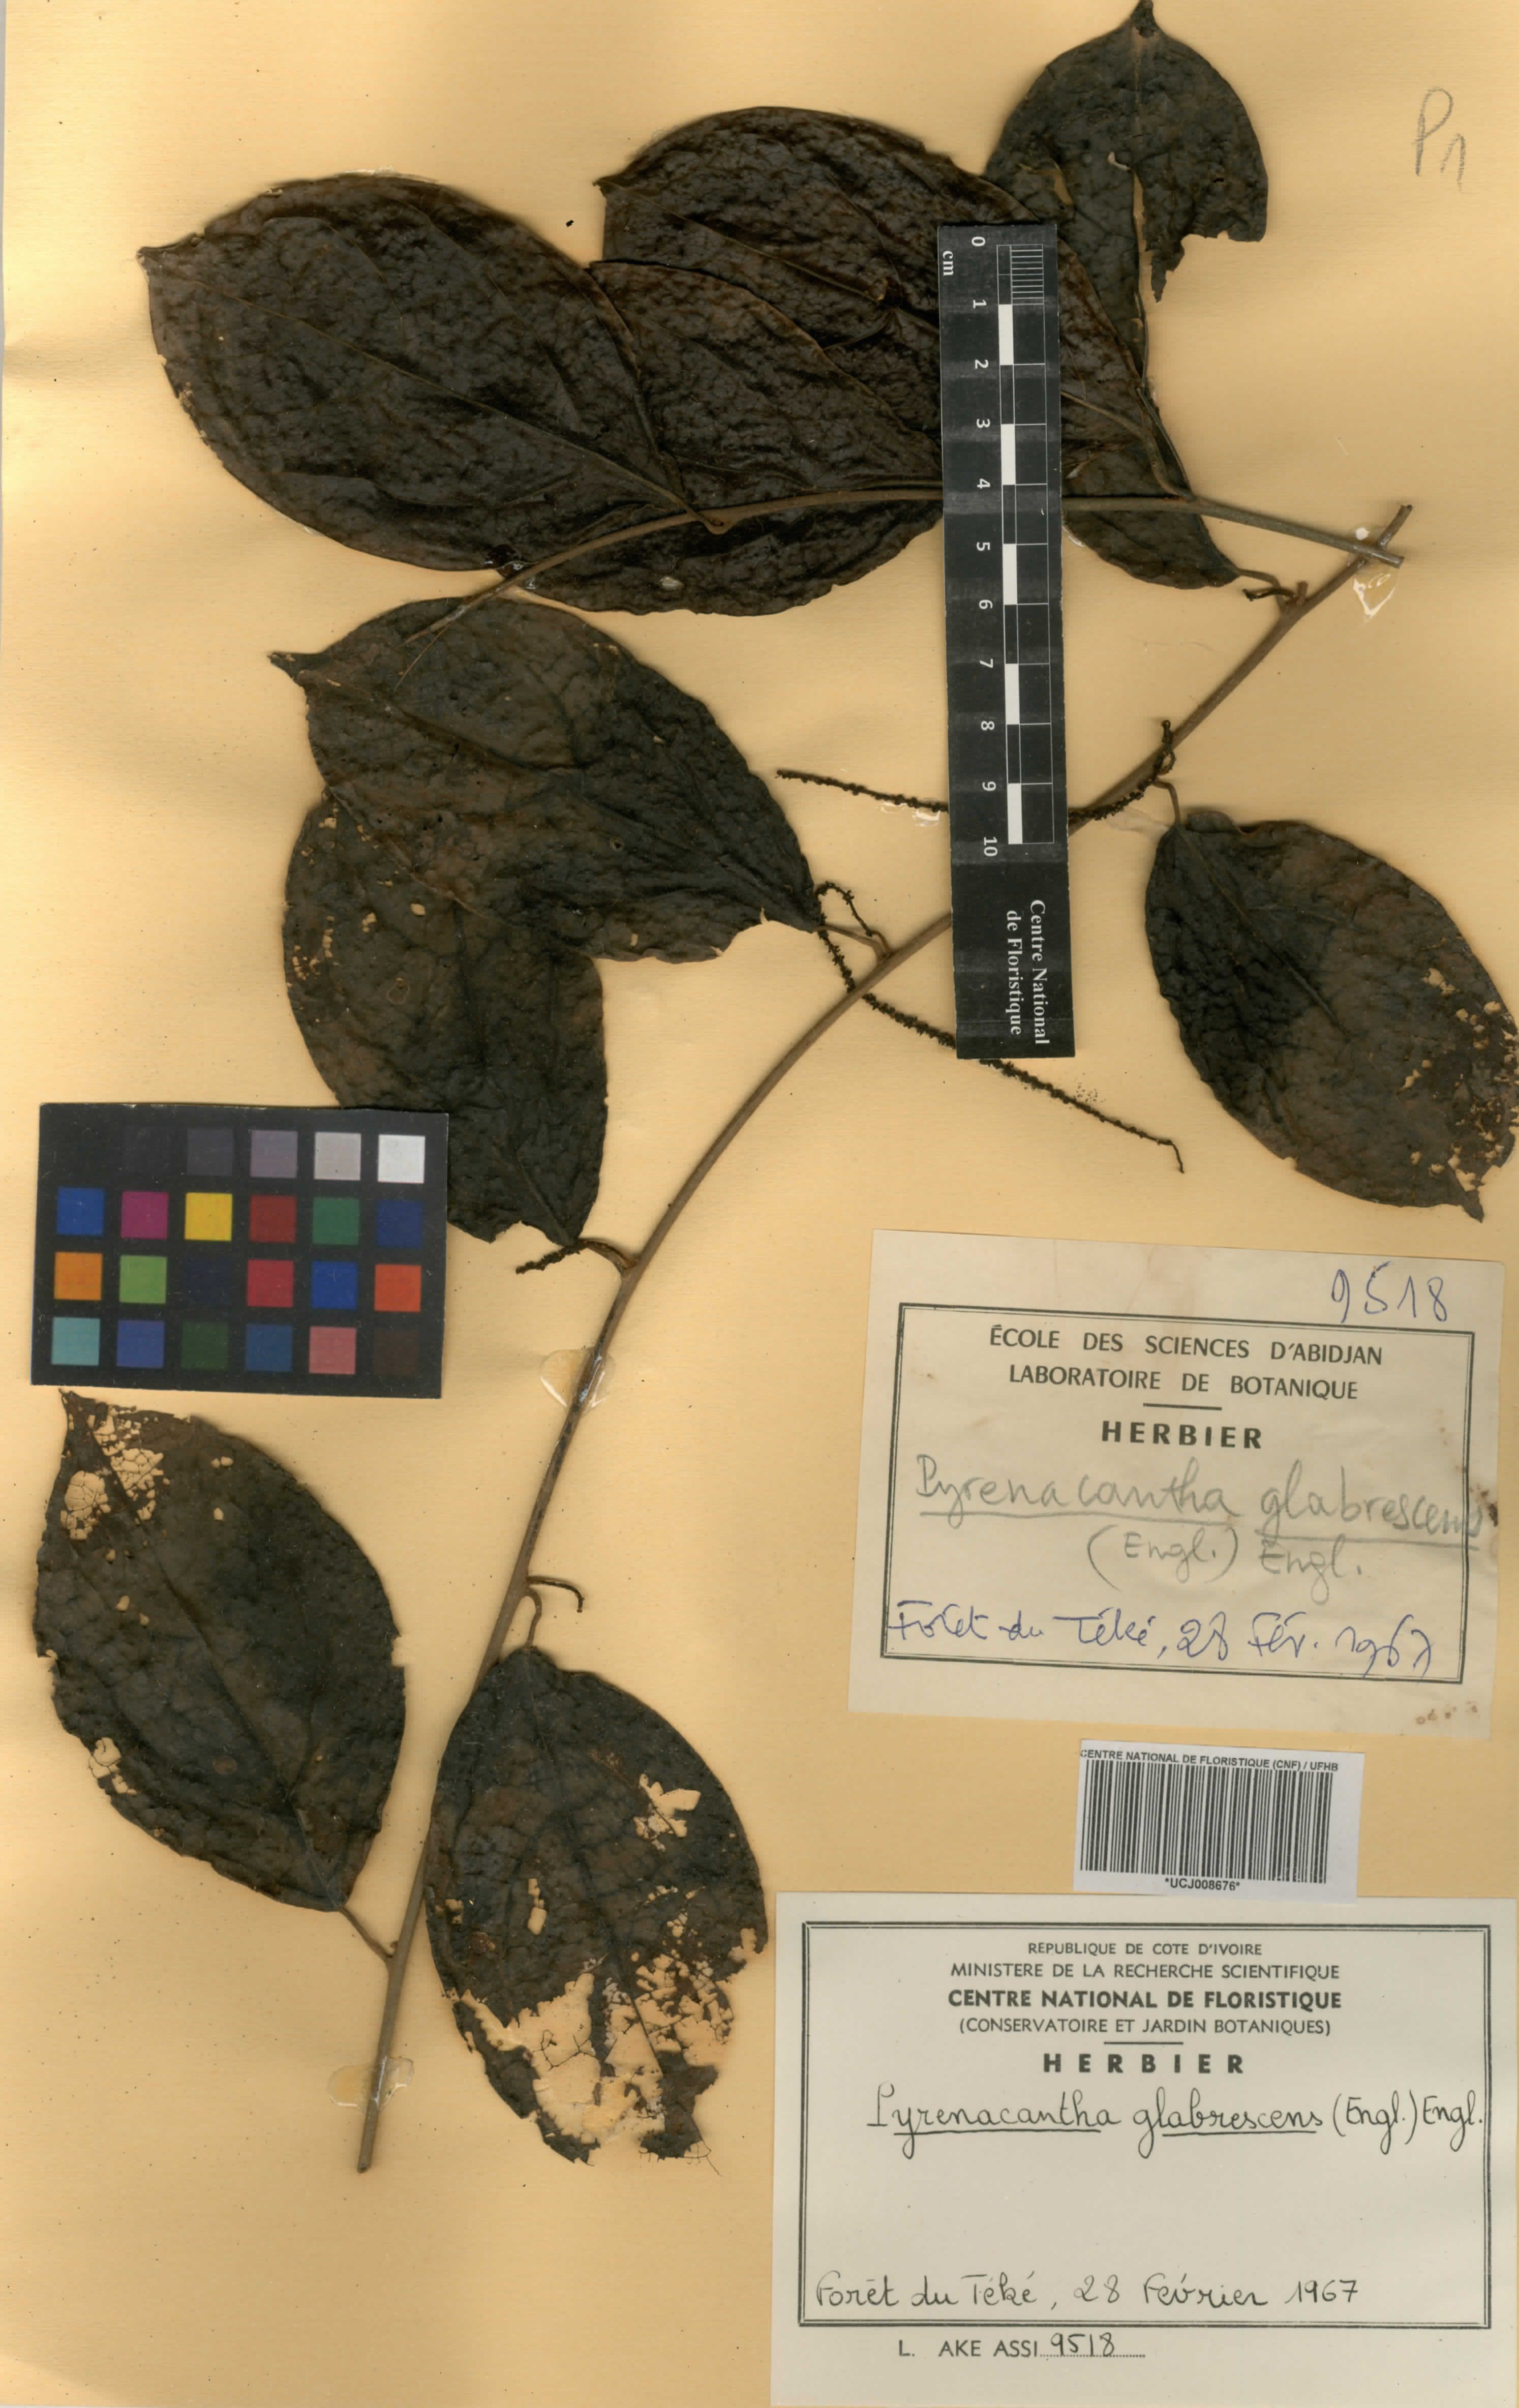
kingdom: Plantae
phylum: Tracheophyta
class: Magnoliopsida
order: Icacinales
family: Icacinaceae
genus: Pyrenacantha
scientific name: Pyrenacantha glabrescens
